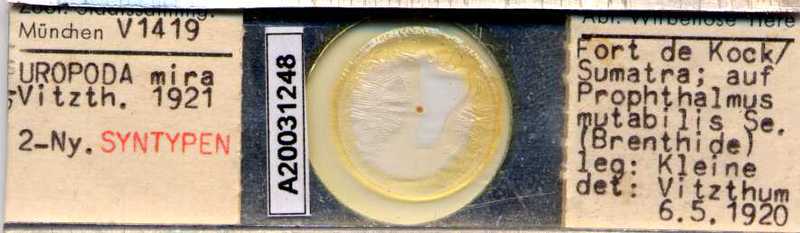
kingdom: Animalia
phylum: Arthropoda
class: Arachnida
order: Mesostigmata
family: Uropodidae
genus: Uropoda
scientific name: Uropoda
